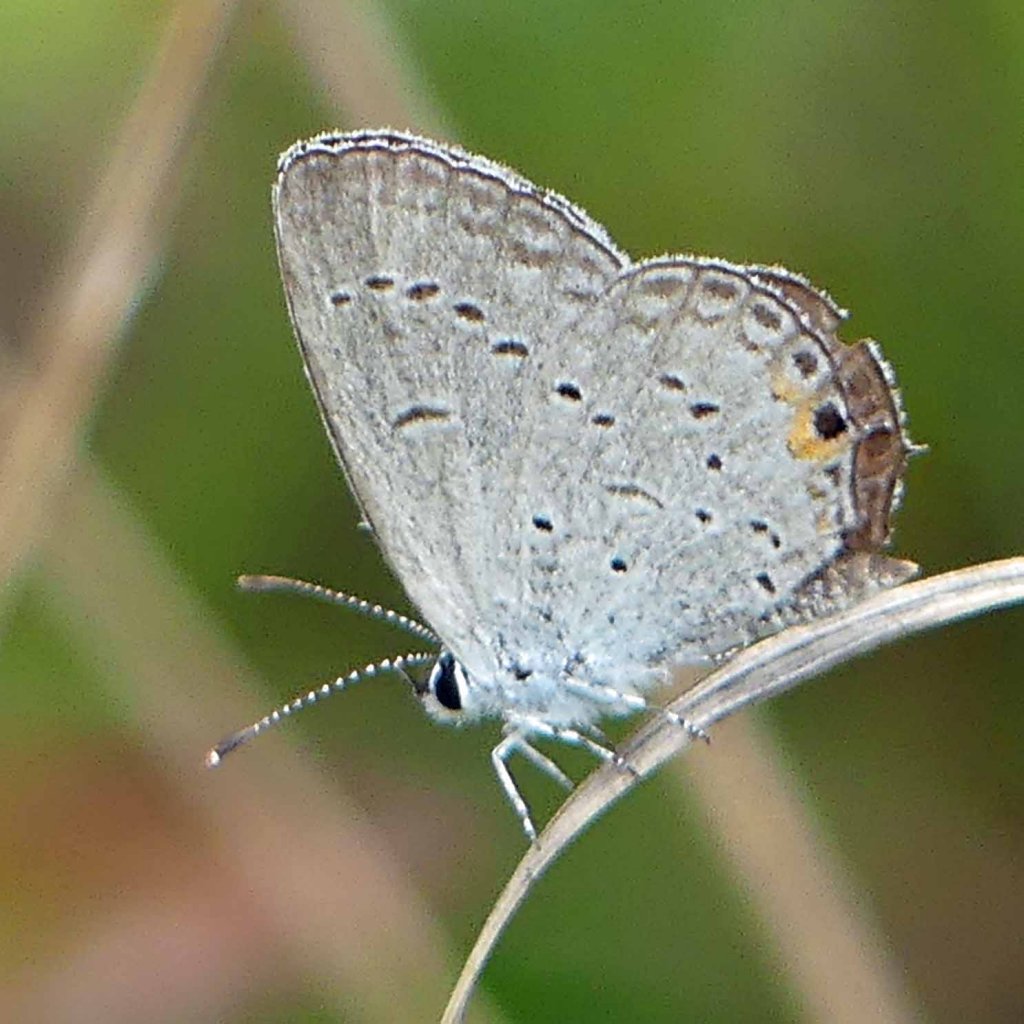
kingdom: Animalia
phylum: Arthropoda
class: Insecta
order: Lepidoptera
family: Lycaenidae
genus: Elkalyce
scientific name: Elkalyce comyntas
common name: Eastern Tailed-Blue
